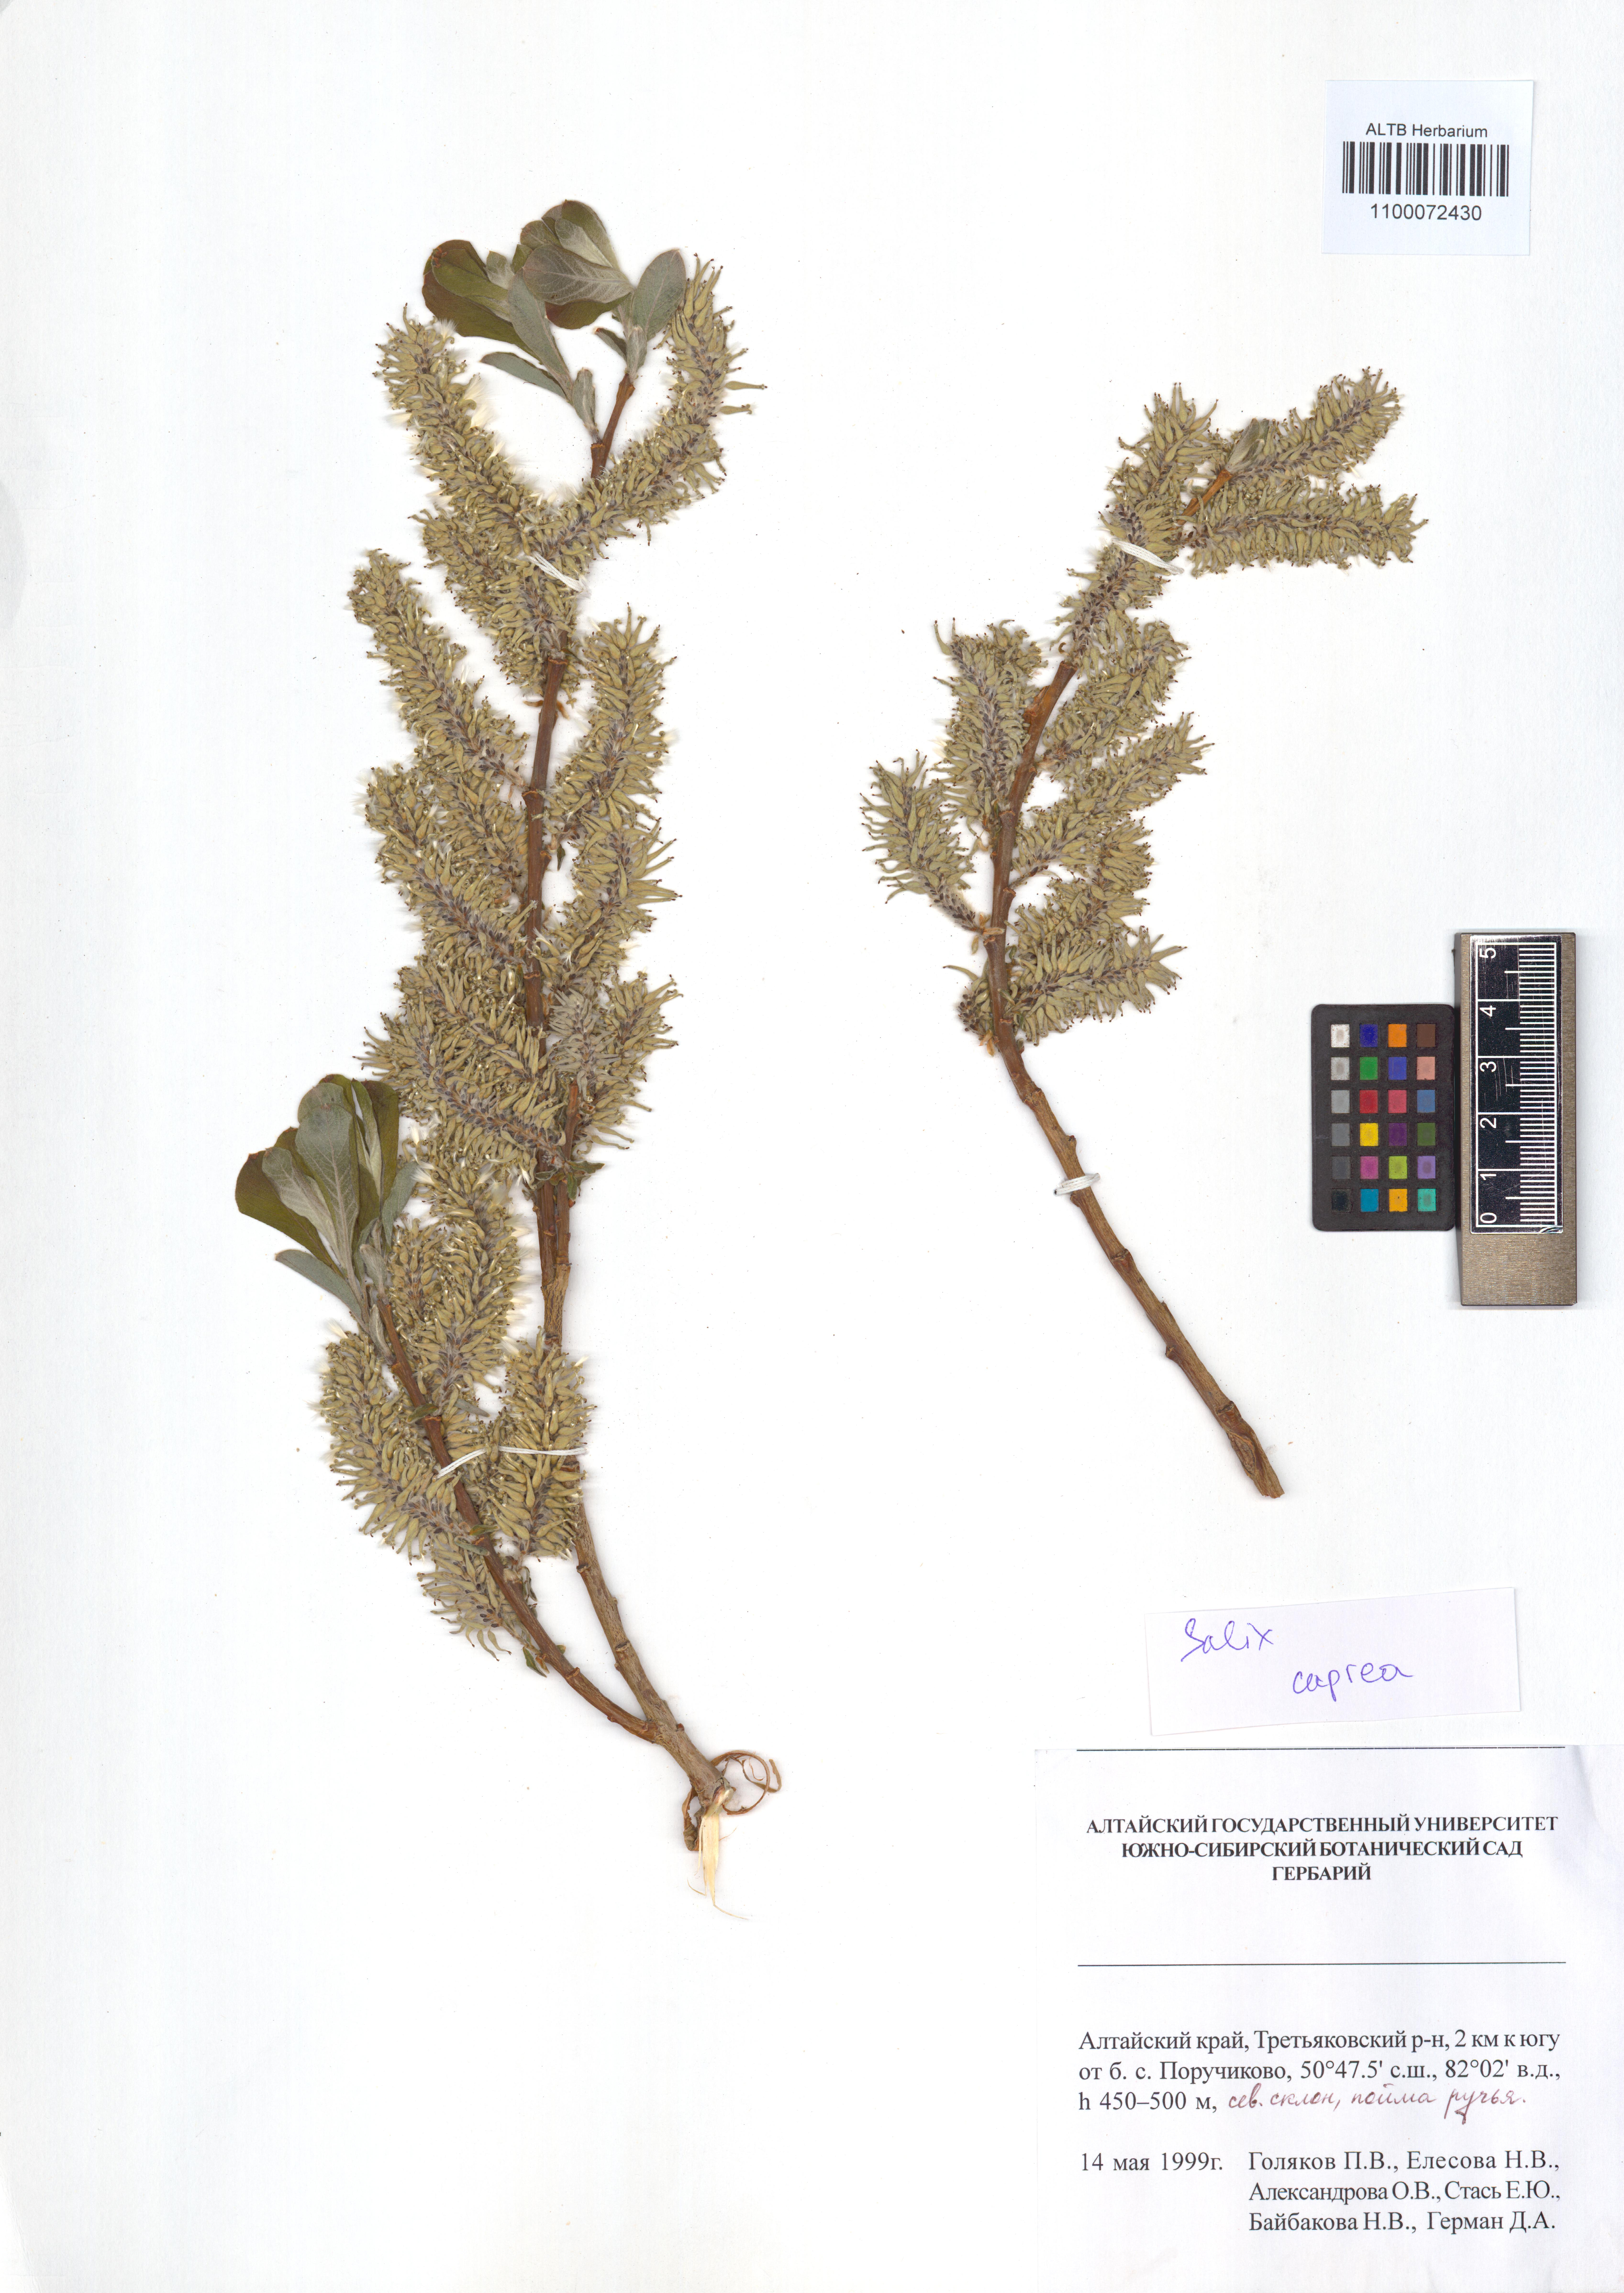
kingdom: Plantae
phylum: Tracheophyta
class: Magnoliopsida
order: Malpighiales
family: Salicaceae
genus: Salix
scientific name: Salix caprea
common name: Goat willow
